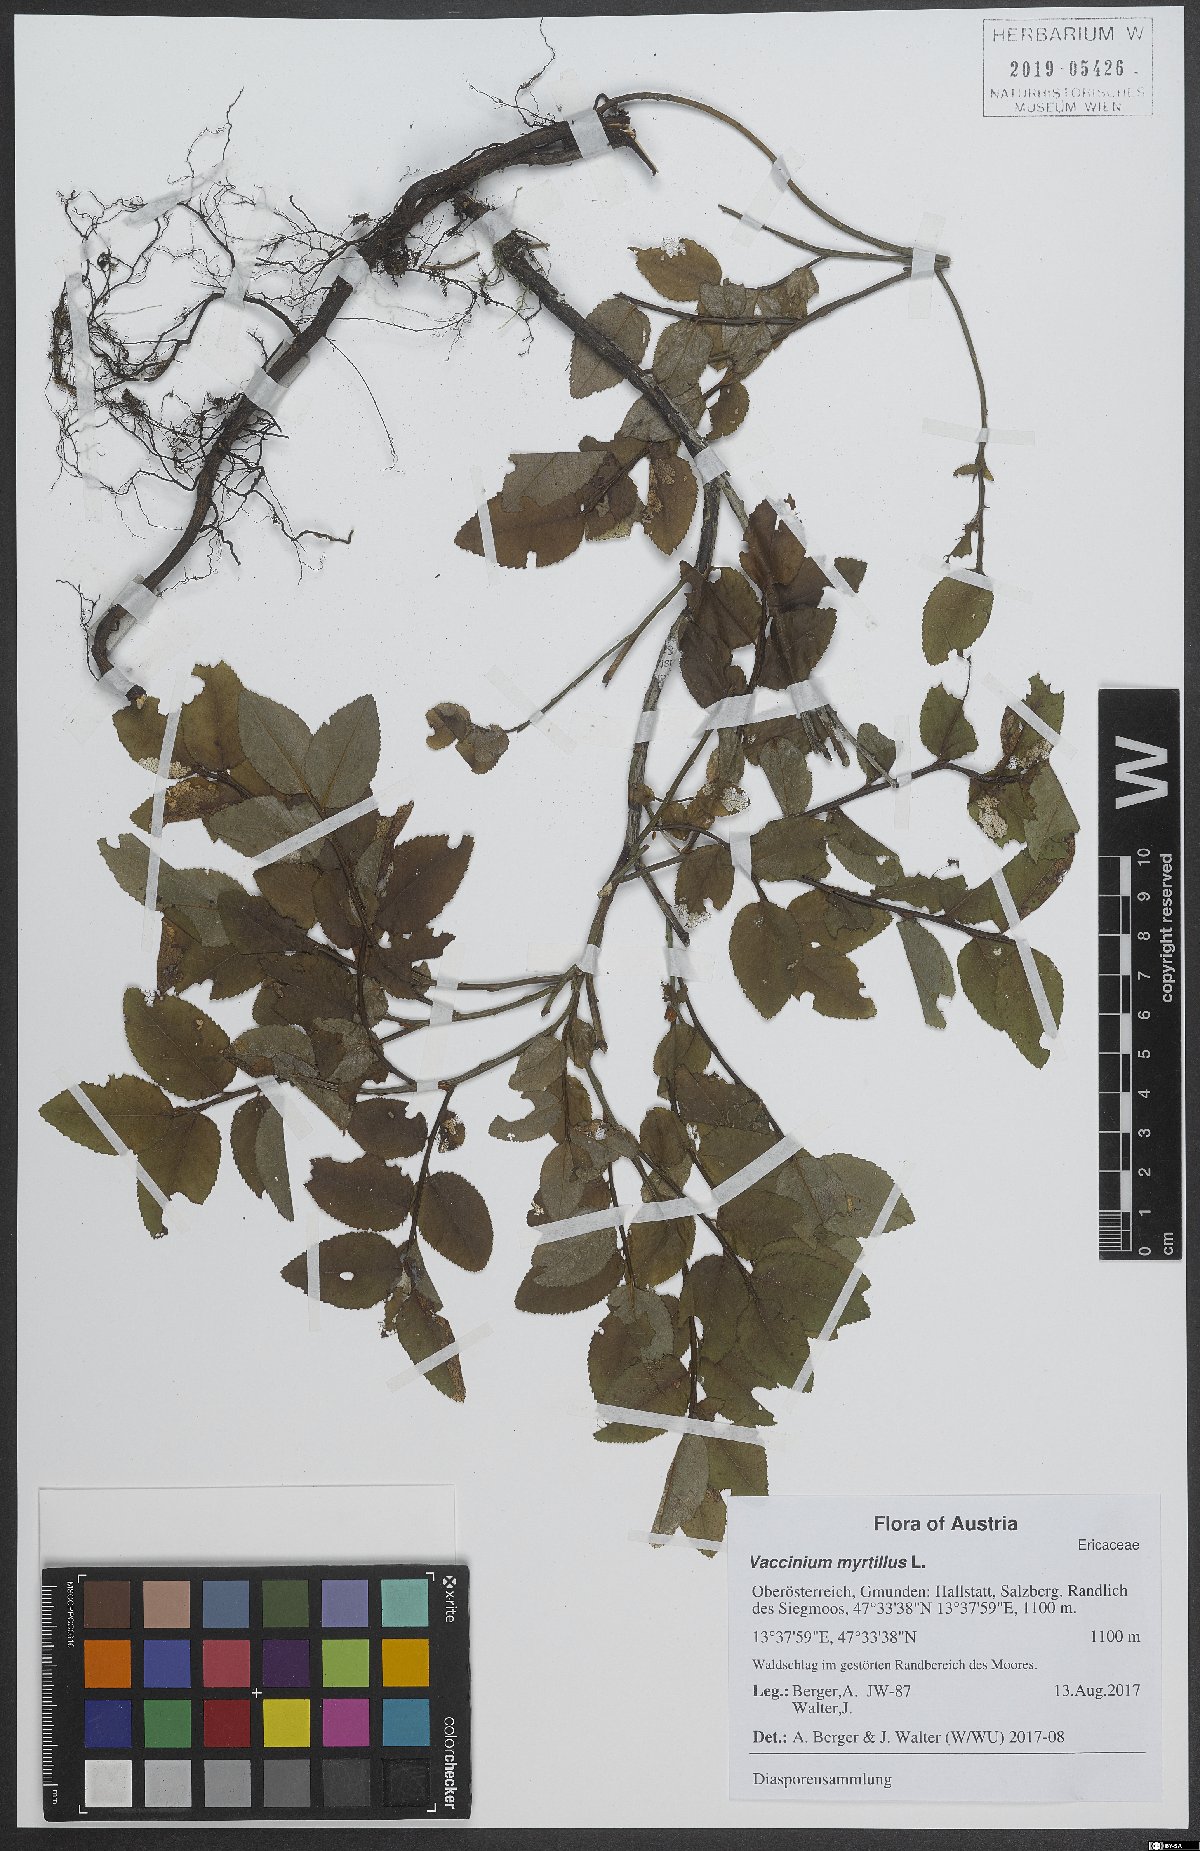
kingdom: Plantae
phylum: Tracheophyta
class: Magnoliopsida
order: Ericales
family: Ericaceae
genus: Vaccinium
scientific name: Vaccinium myrtillus
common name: Bilberry
